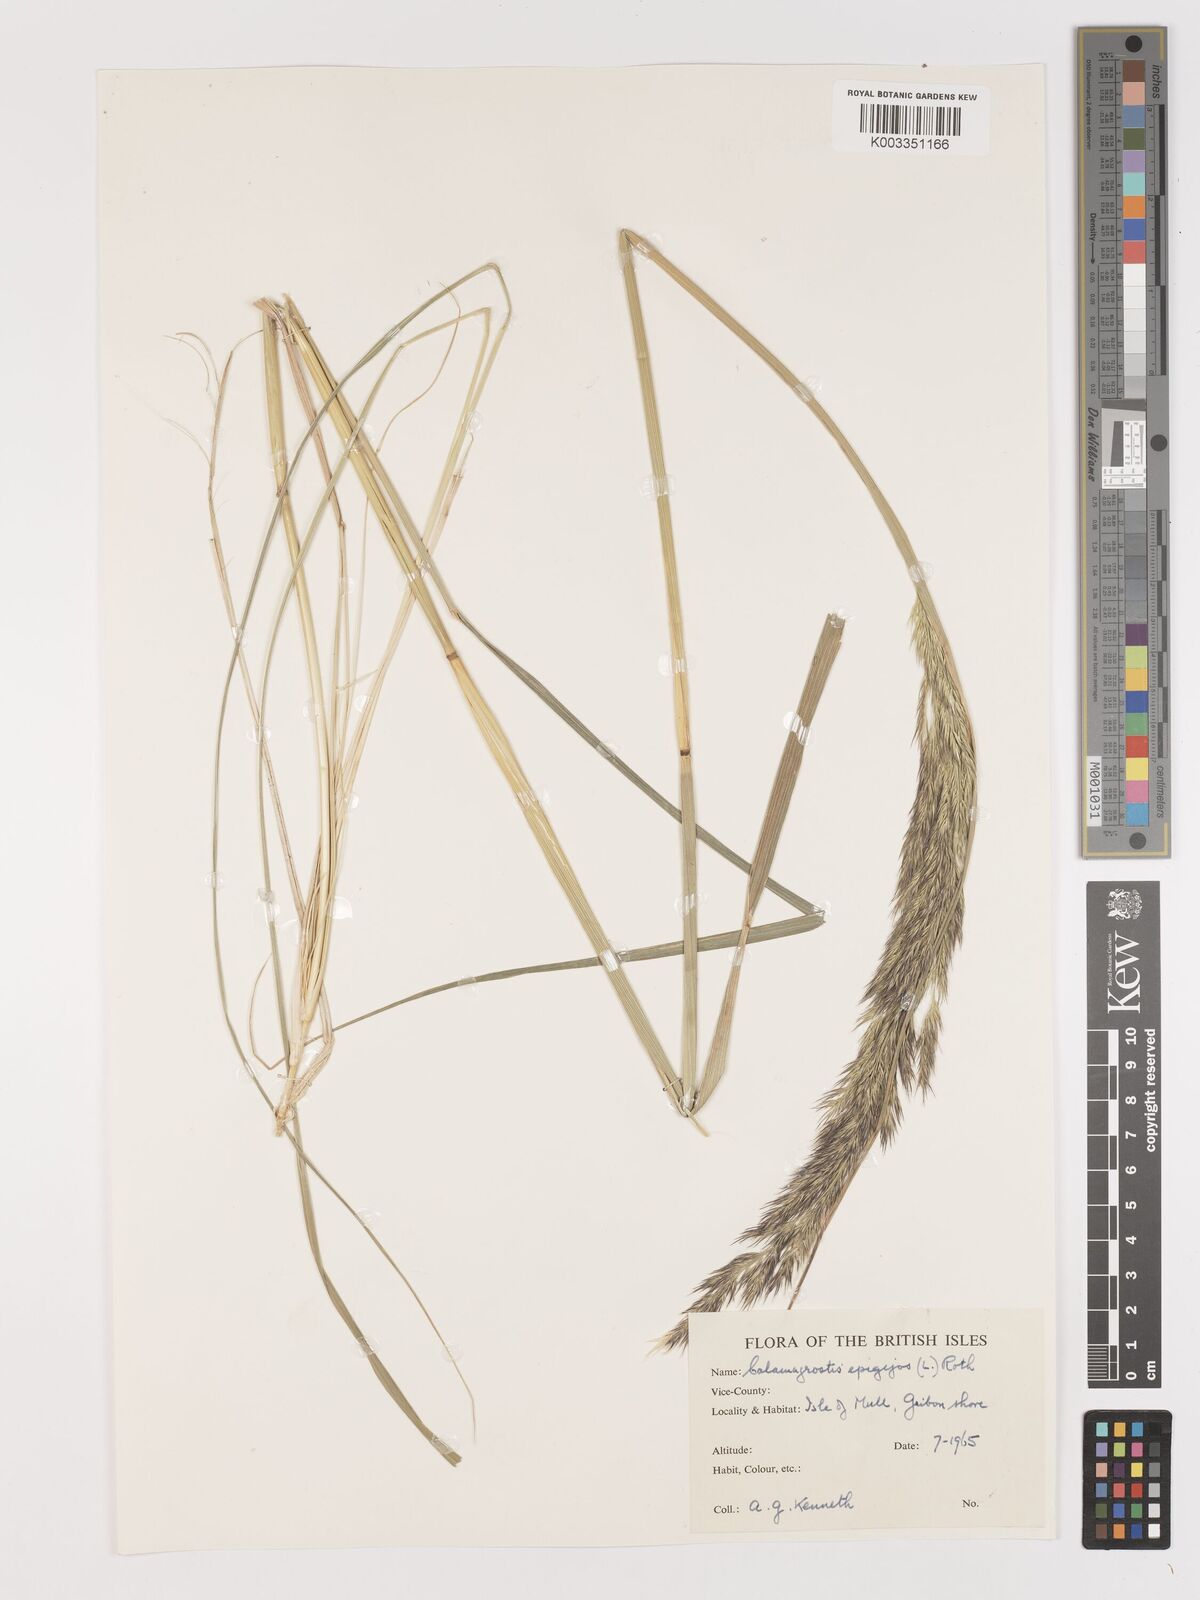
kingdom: Plantae
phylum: Tracheophyta
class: Liliopsida
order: Poales
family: Poaceae
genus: Calamagrostis
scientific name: Calamagrostis
